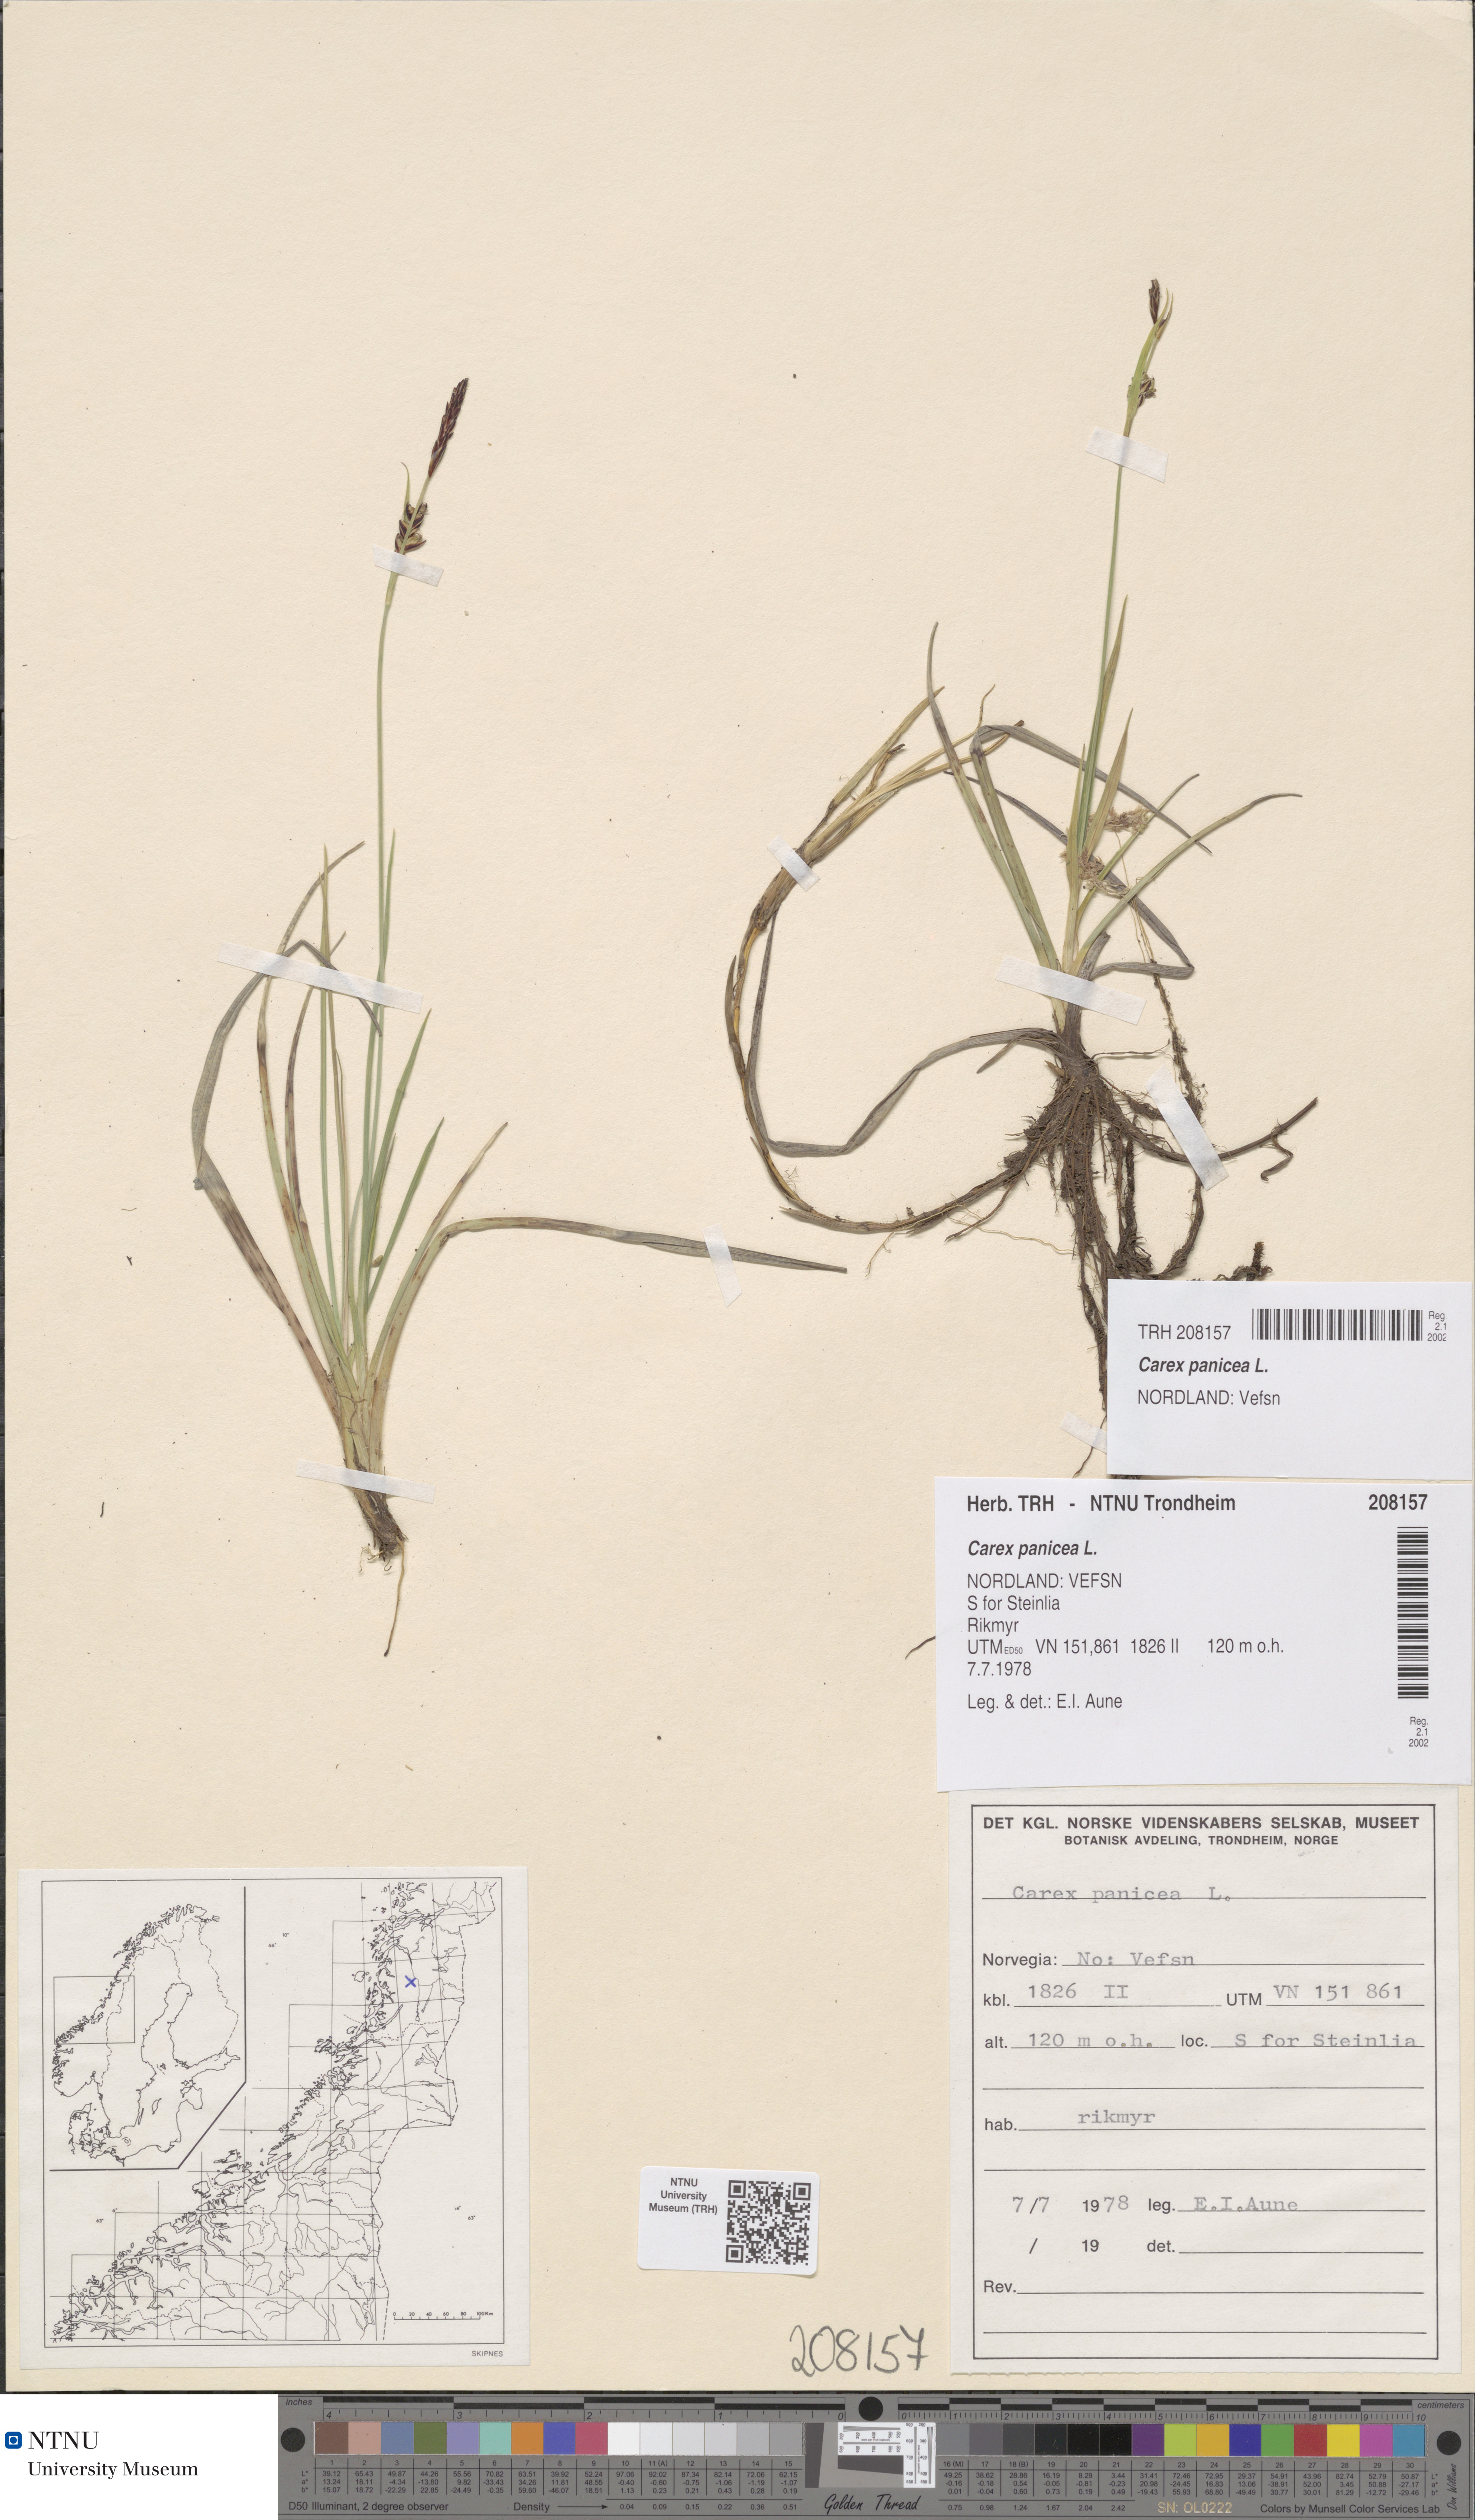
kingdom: Plantae
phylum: Tracheophyta
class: Liliopsida
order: Poales
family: Cyperaceae
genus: Carex
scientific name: Carex panicea
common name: Carnation sedge
